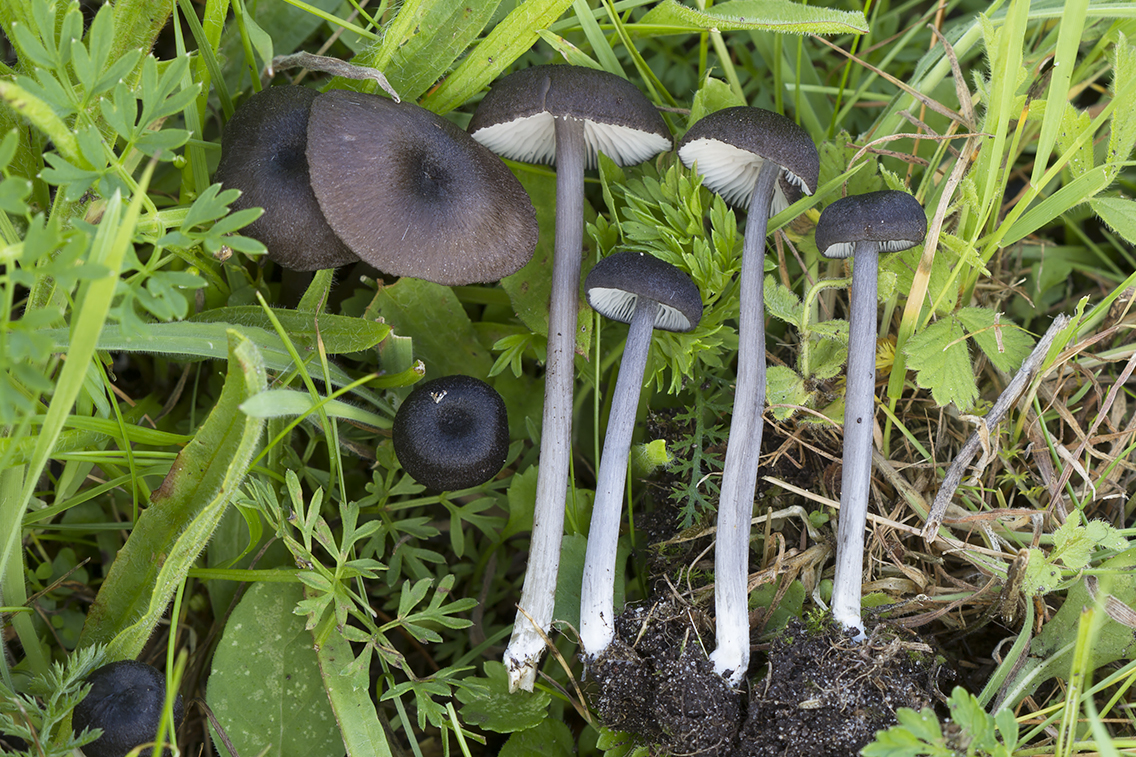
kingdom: Fungi
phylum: Basidiomycota
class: Agaricomycetes
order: Agaricales
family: Entolomataceae
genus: Entoloma
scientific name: Entoloma porphyrogriseum
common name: porfyrgrå rødblad
